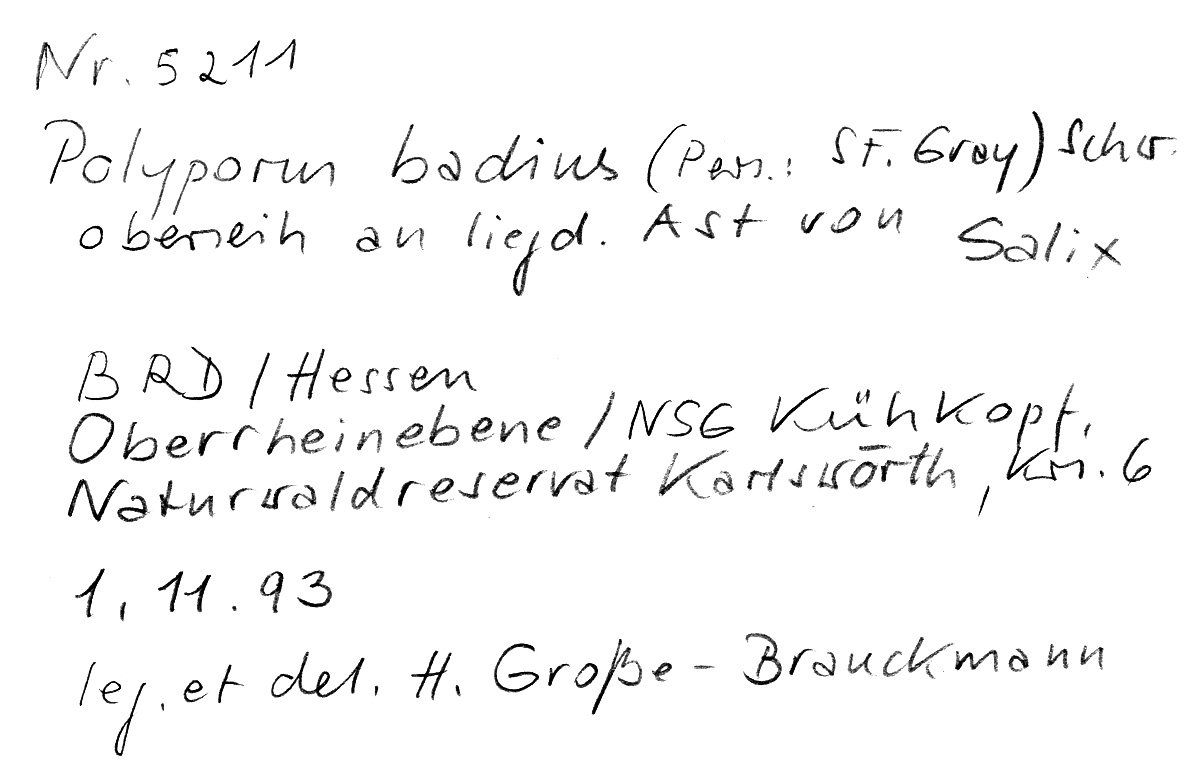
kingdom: Plantae
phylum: Tracheophyta
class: Magnoliopsida
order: Malpighiales
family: Salicaceae
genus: Salix
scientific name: Salix
